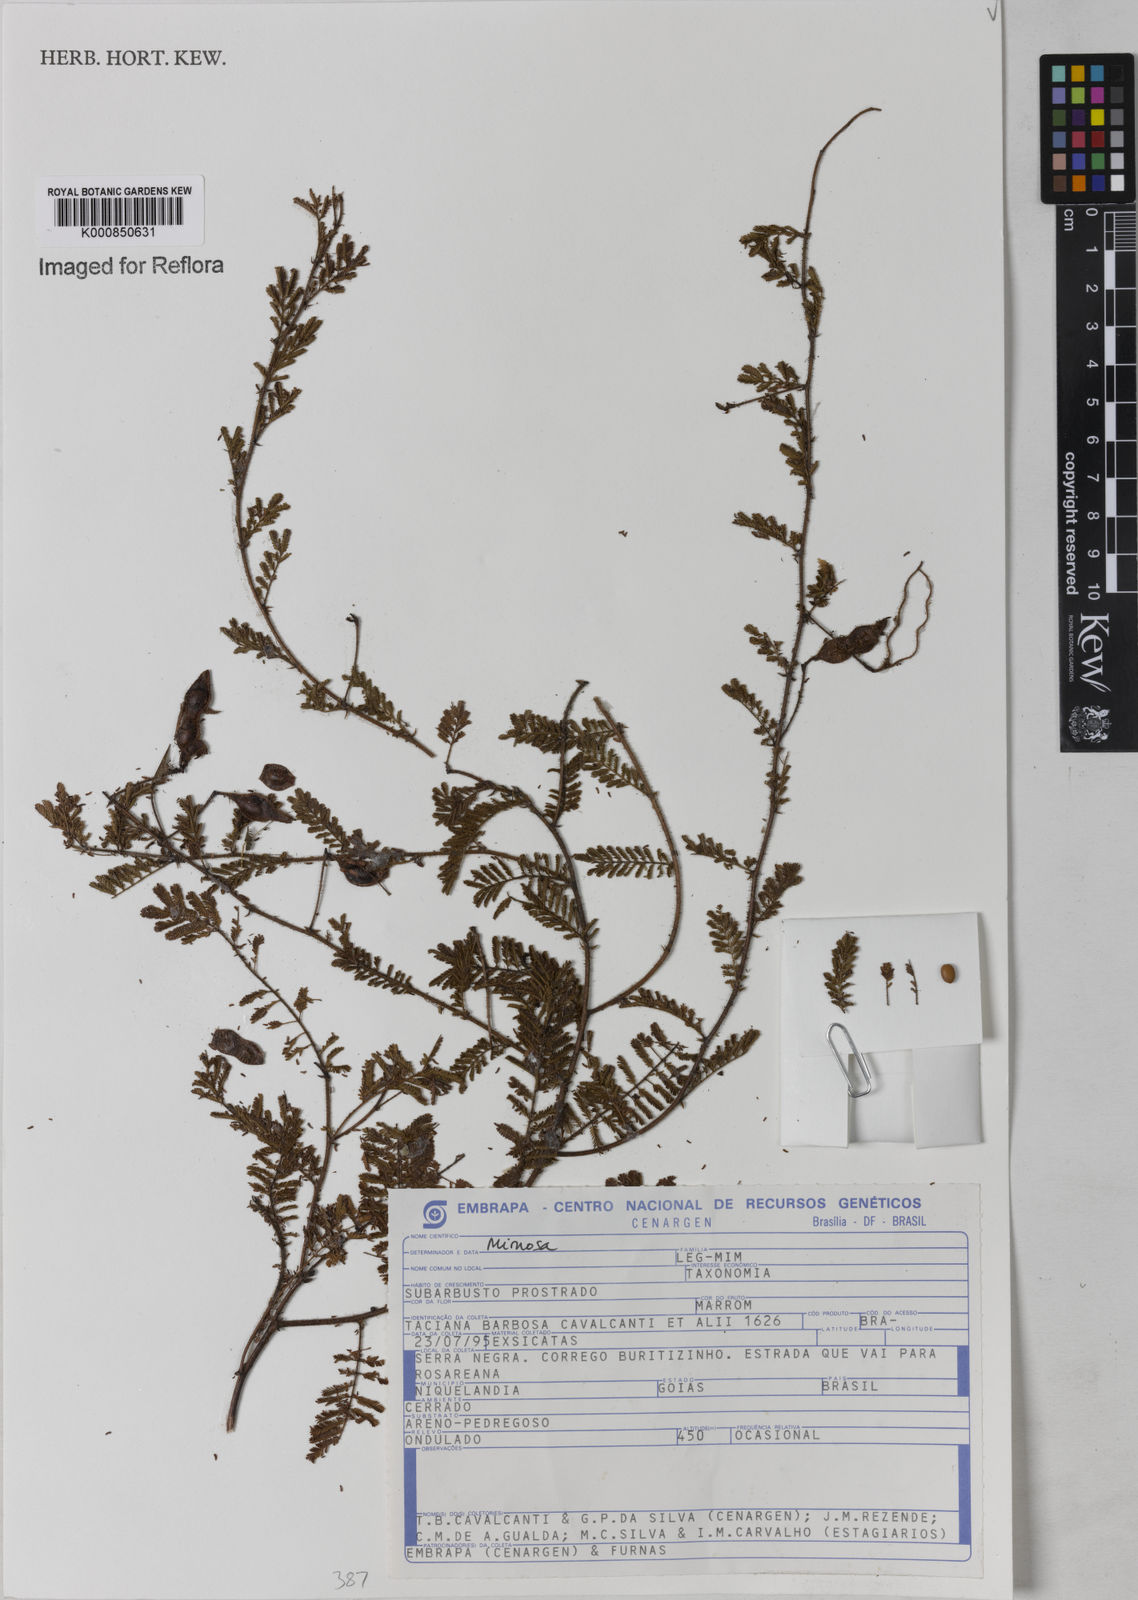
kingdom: Plantae
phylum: Tracheophyta
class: Magnoliopsida
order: Fabales
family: Fabaceae
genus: Mimosa
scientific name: Mimosa
